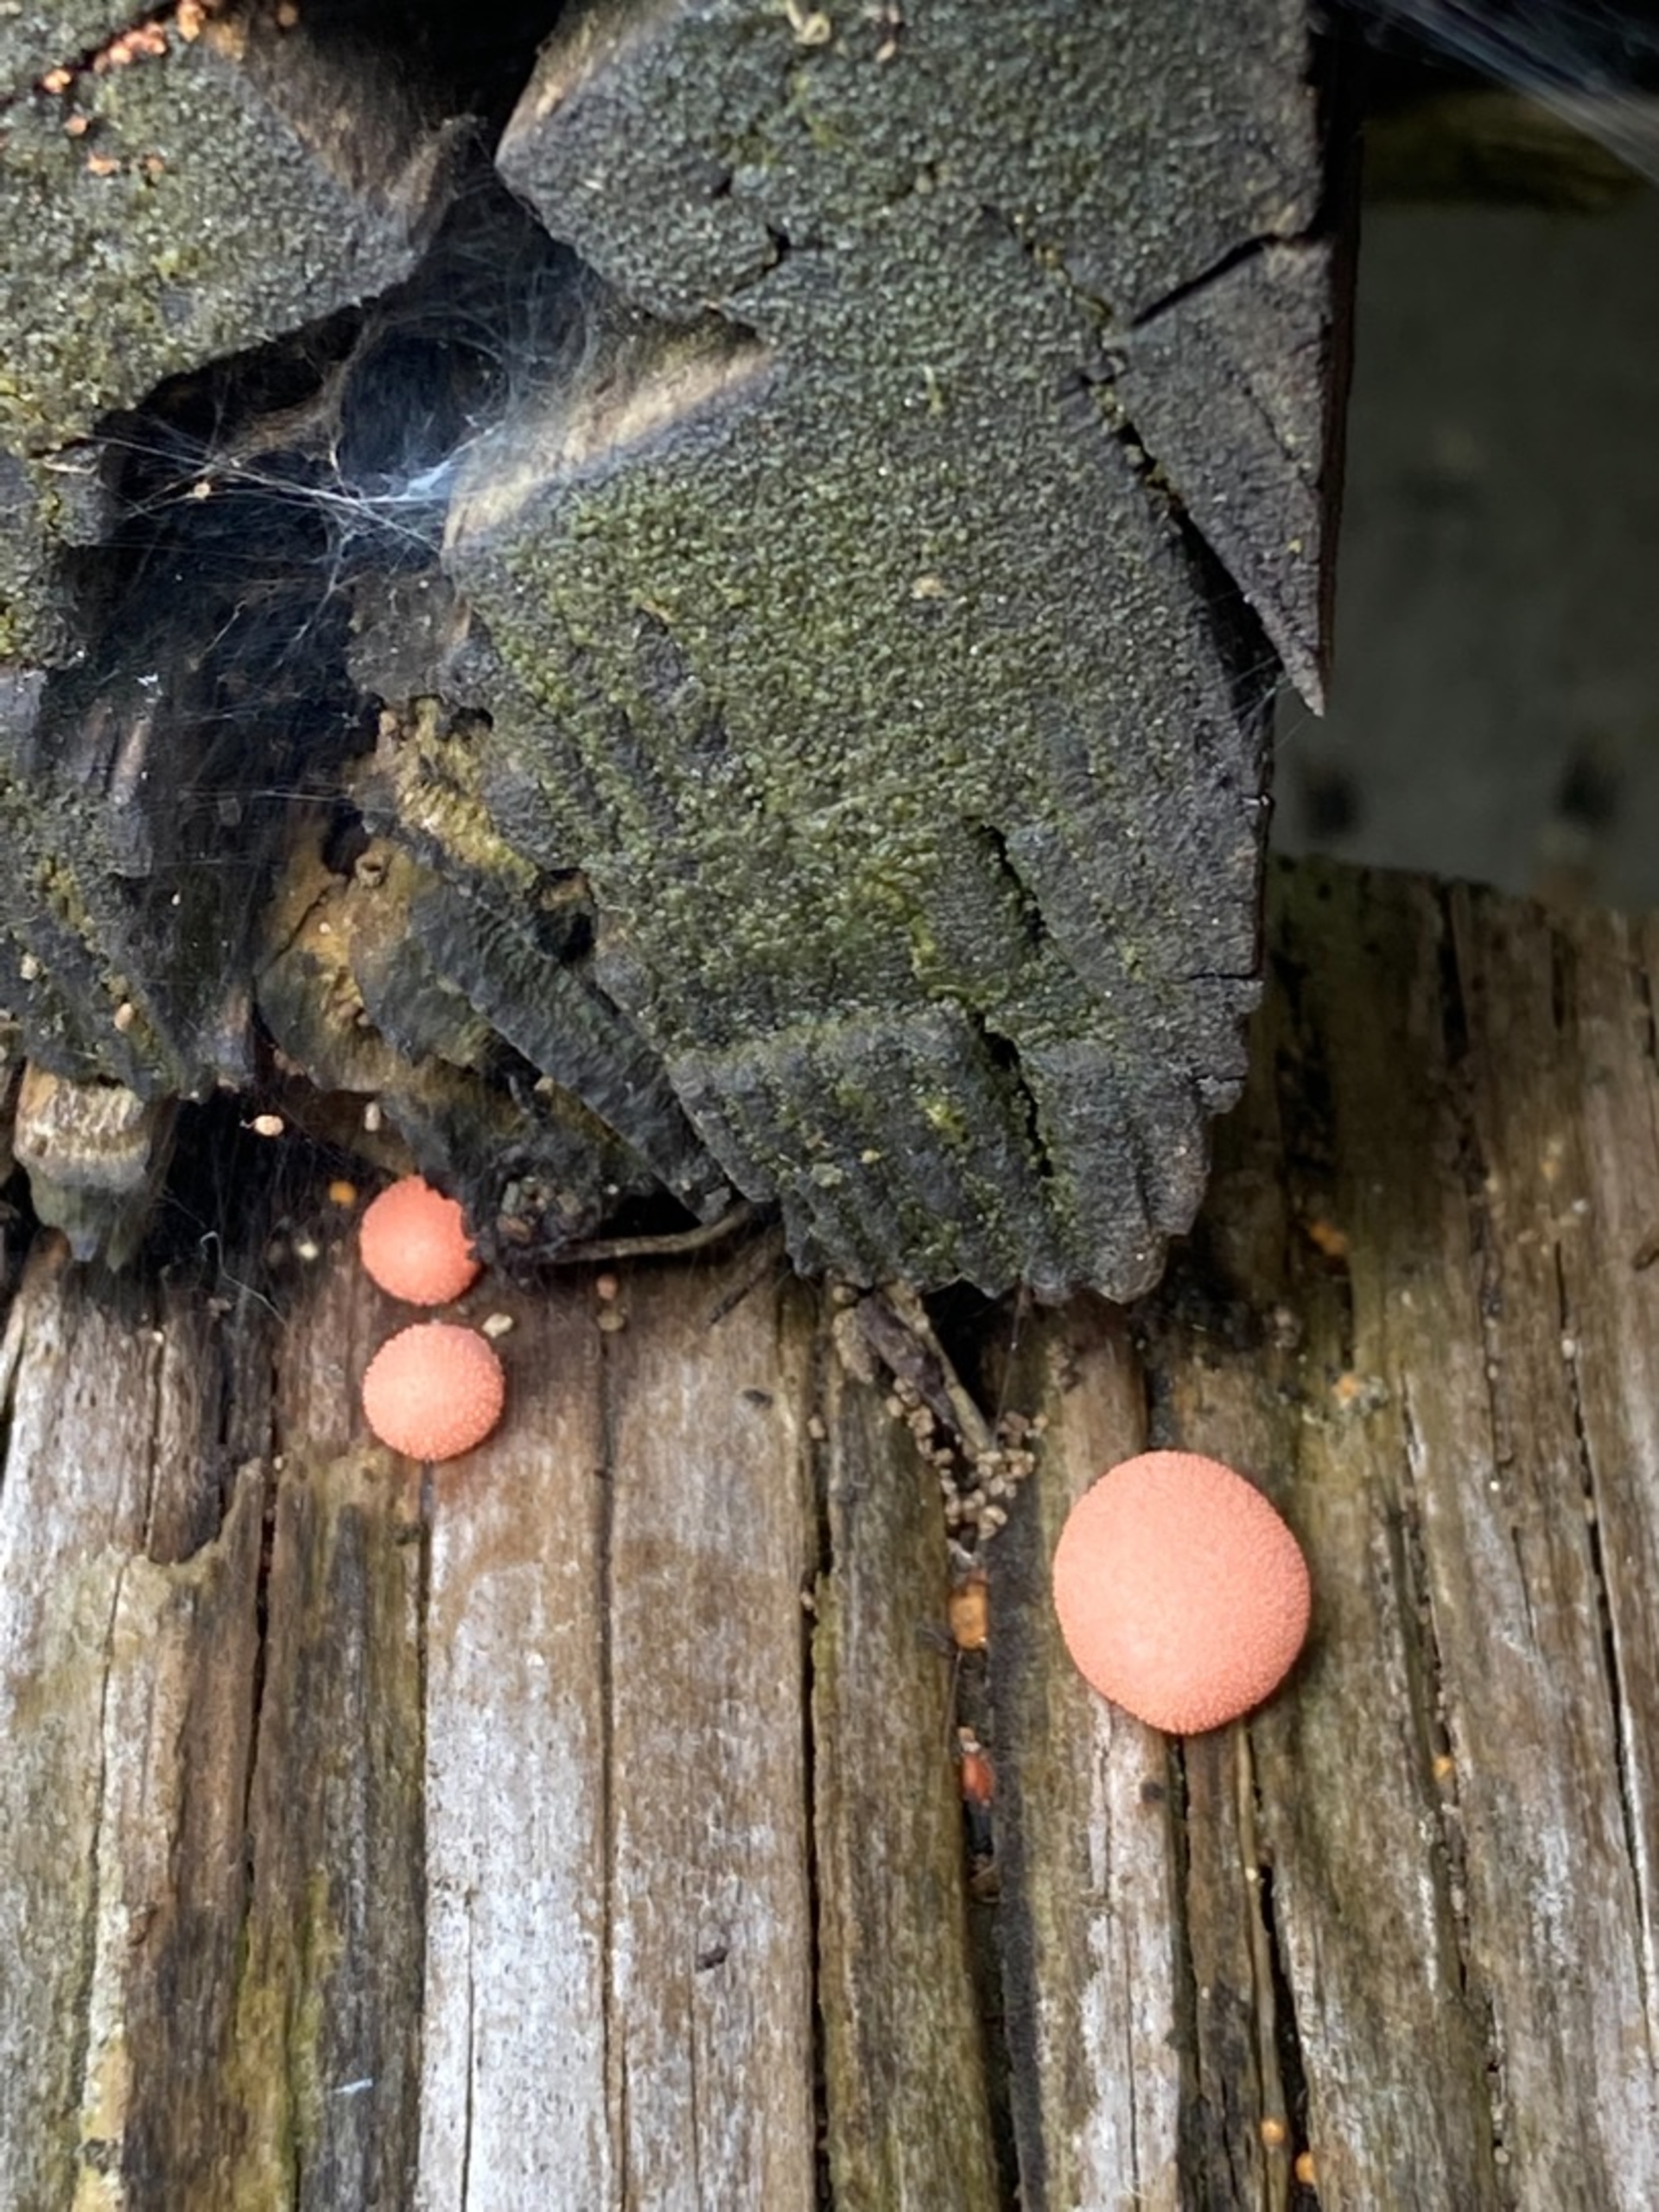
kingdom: Protozoa
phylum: Mycetozoa
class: Myxomycetes
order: Cribrariales
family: Tubiferaceae
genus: Lycogala
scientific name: Lycogala epidendrum
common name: Almindelig rødært
